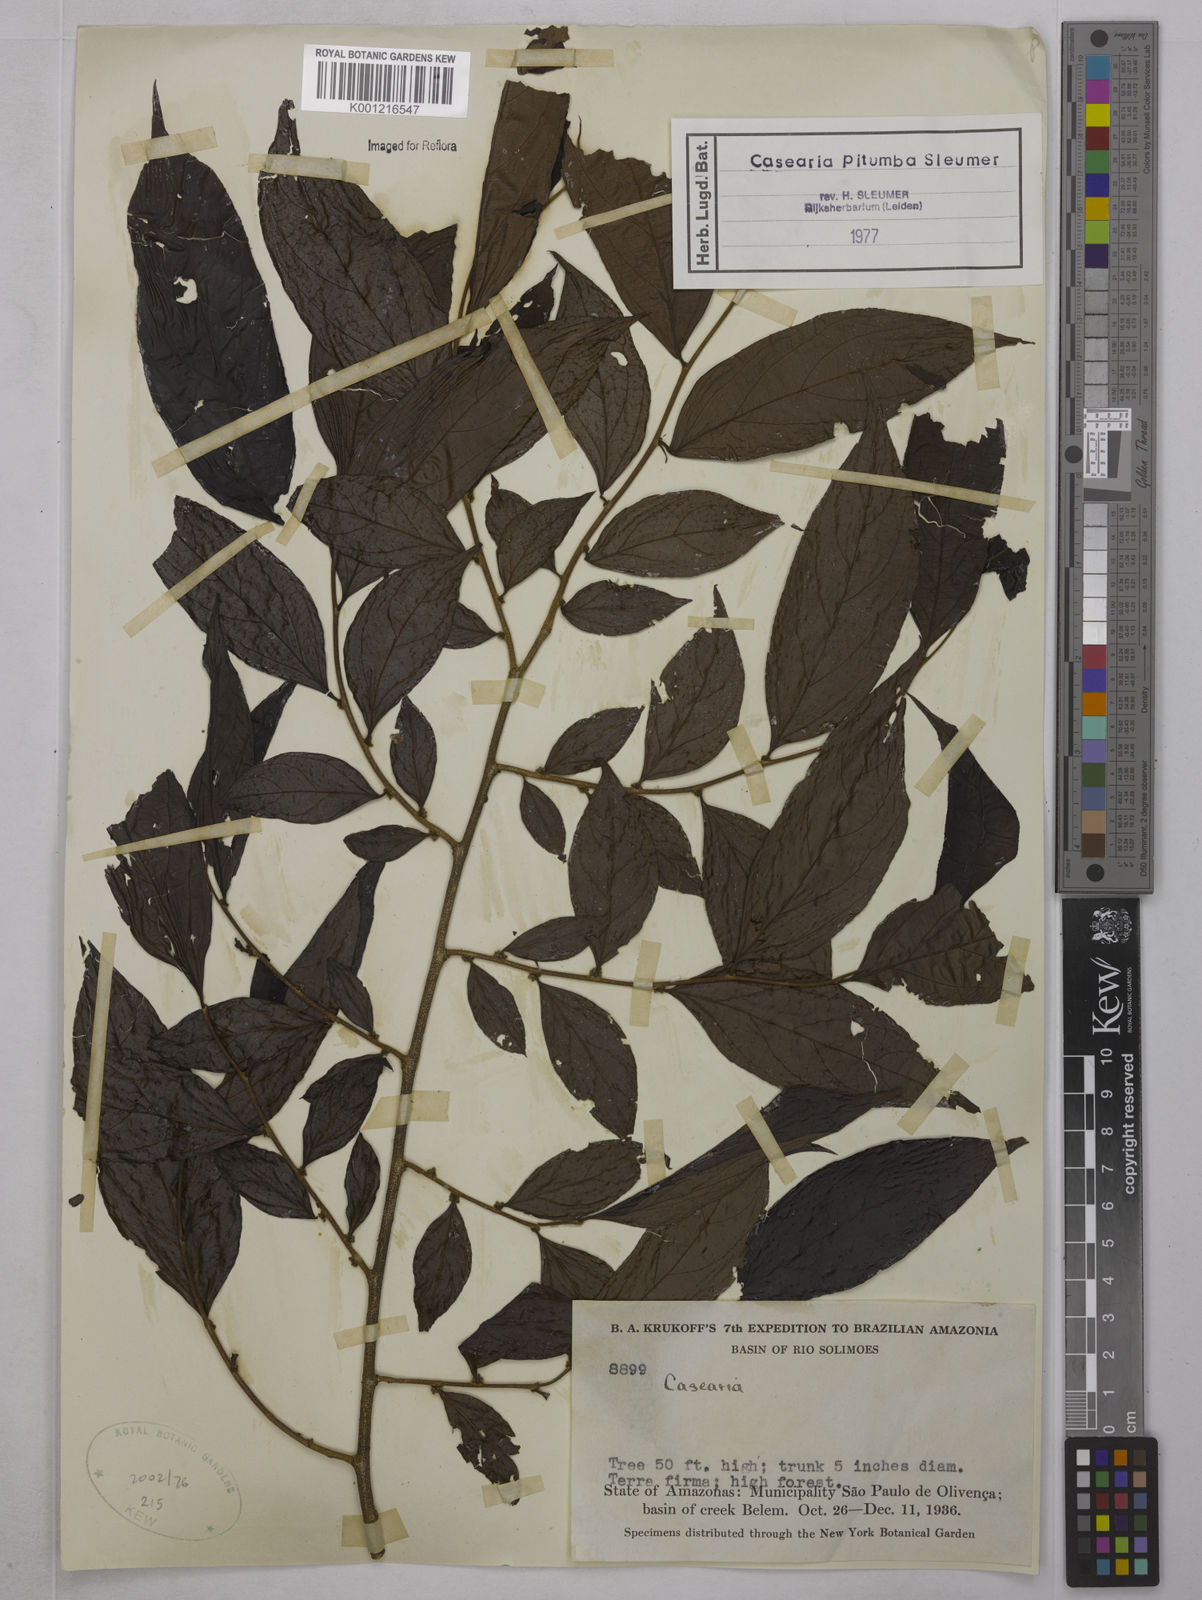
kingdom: Plantae
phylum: Tracheophyta
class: Magnoliopsida
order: Malpighiales
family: Salicaceae
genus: Casearia
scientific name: Casearia pitumba
